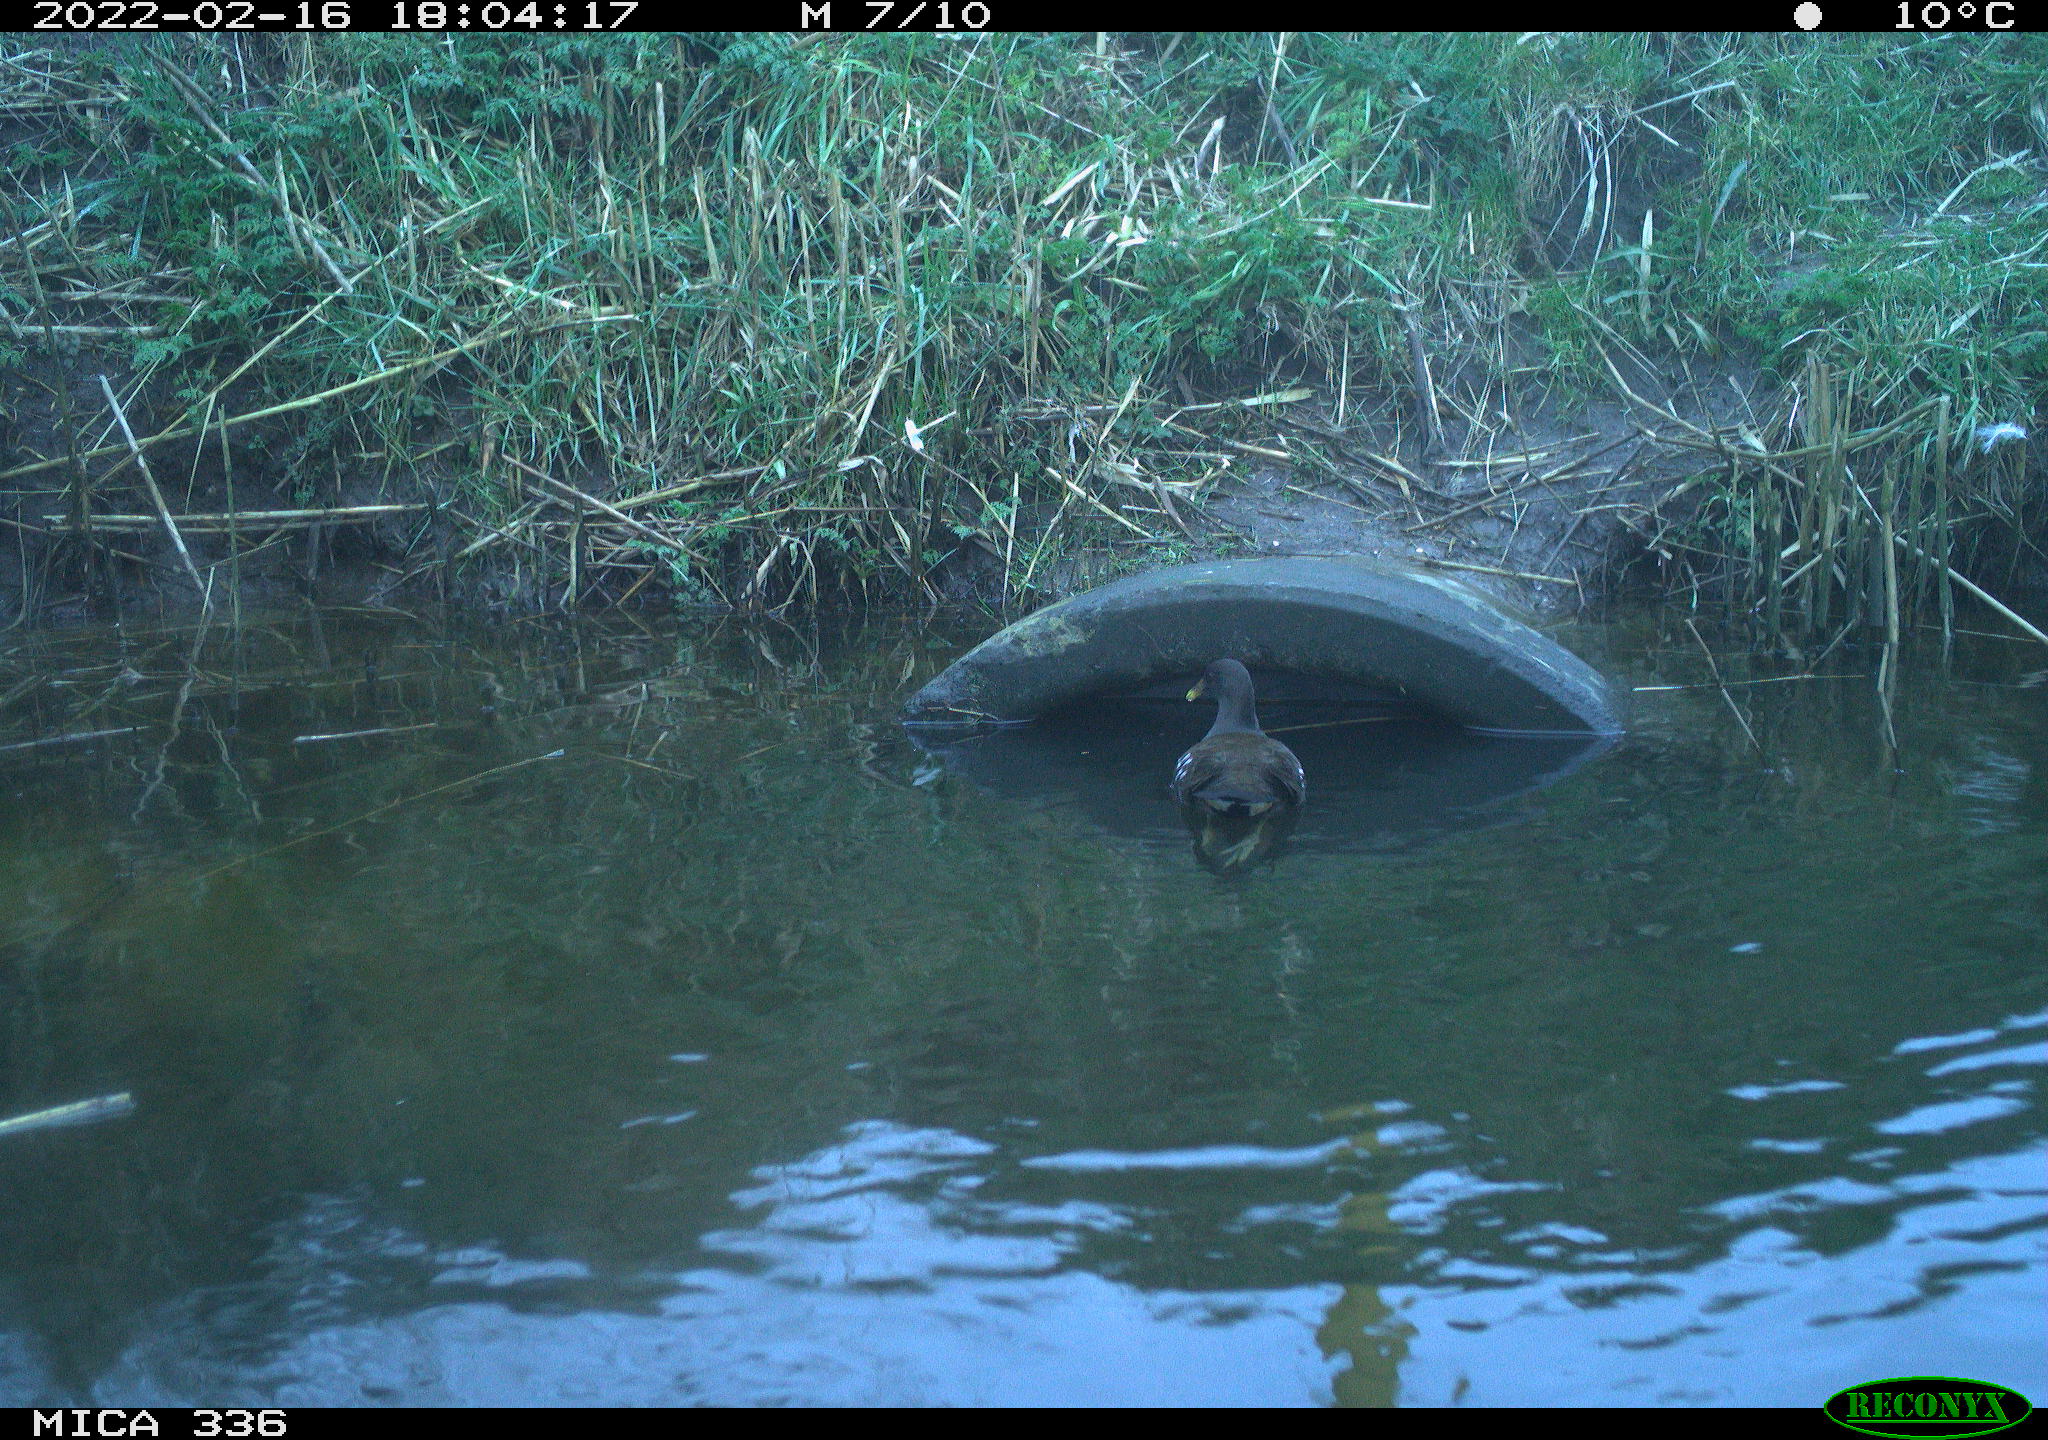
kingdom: Animalia
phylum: Chordata
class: Aves
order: Gruiformes
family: Rallidae
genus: Gallinula
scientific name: Gallinula chloropus
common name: Common moorhen
